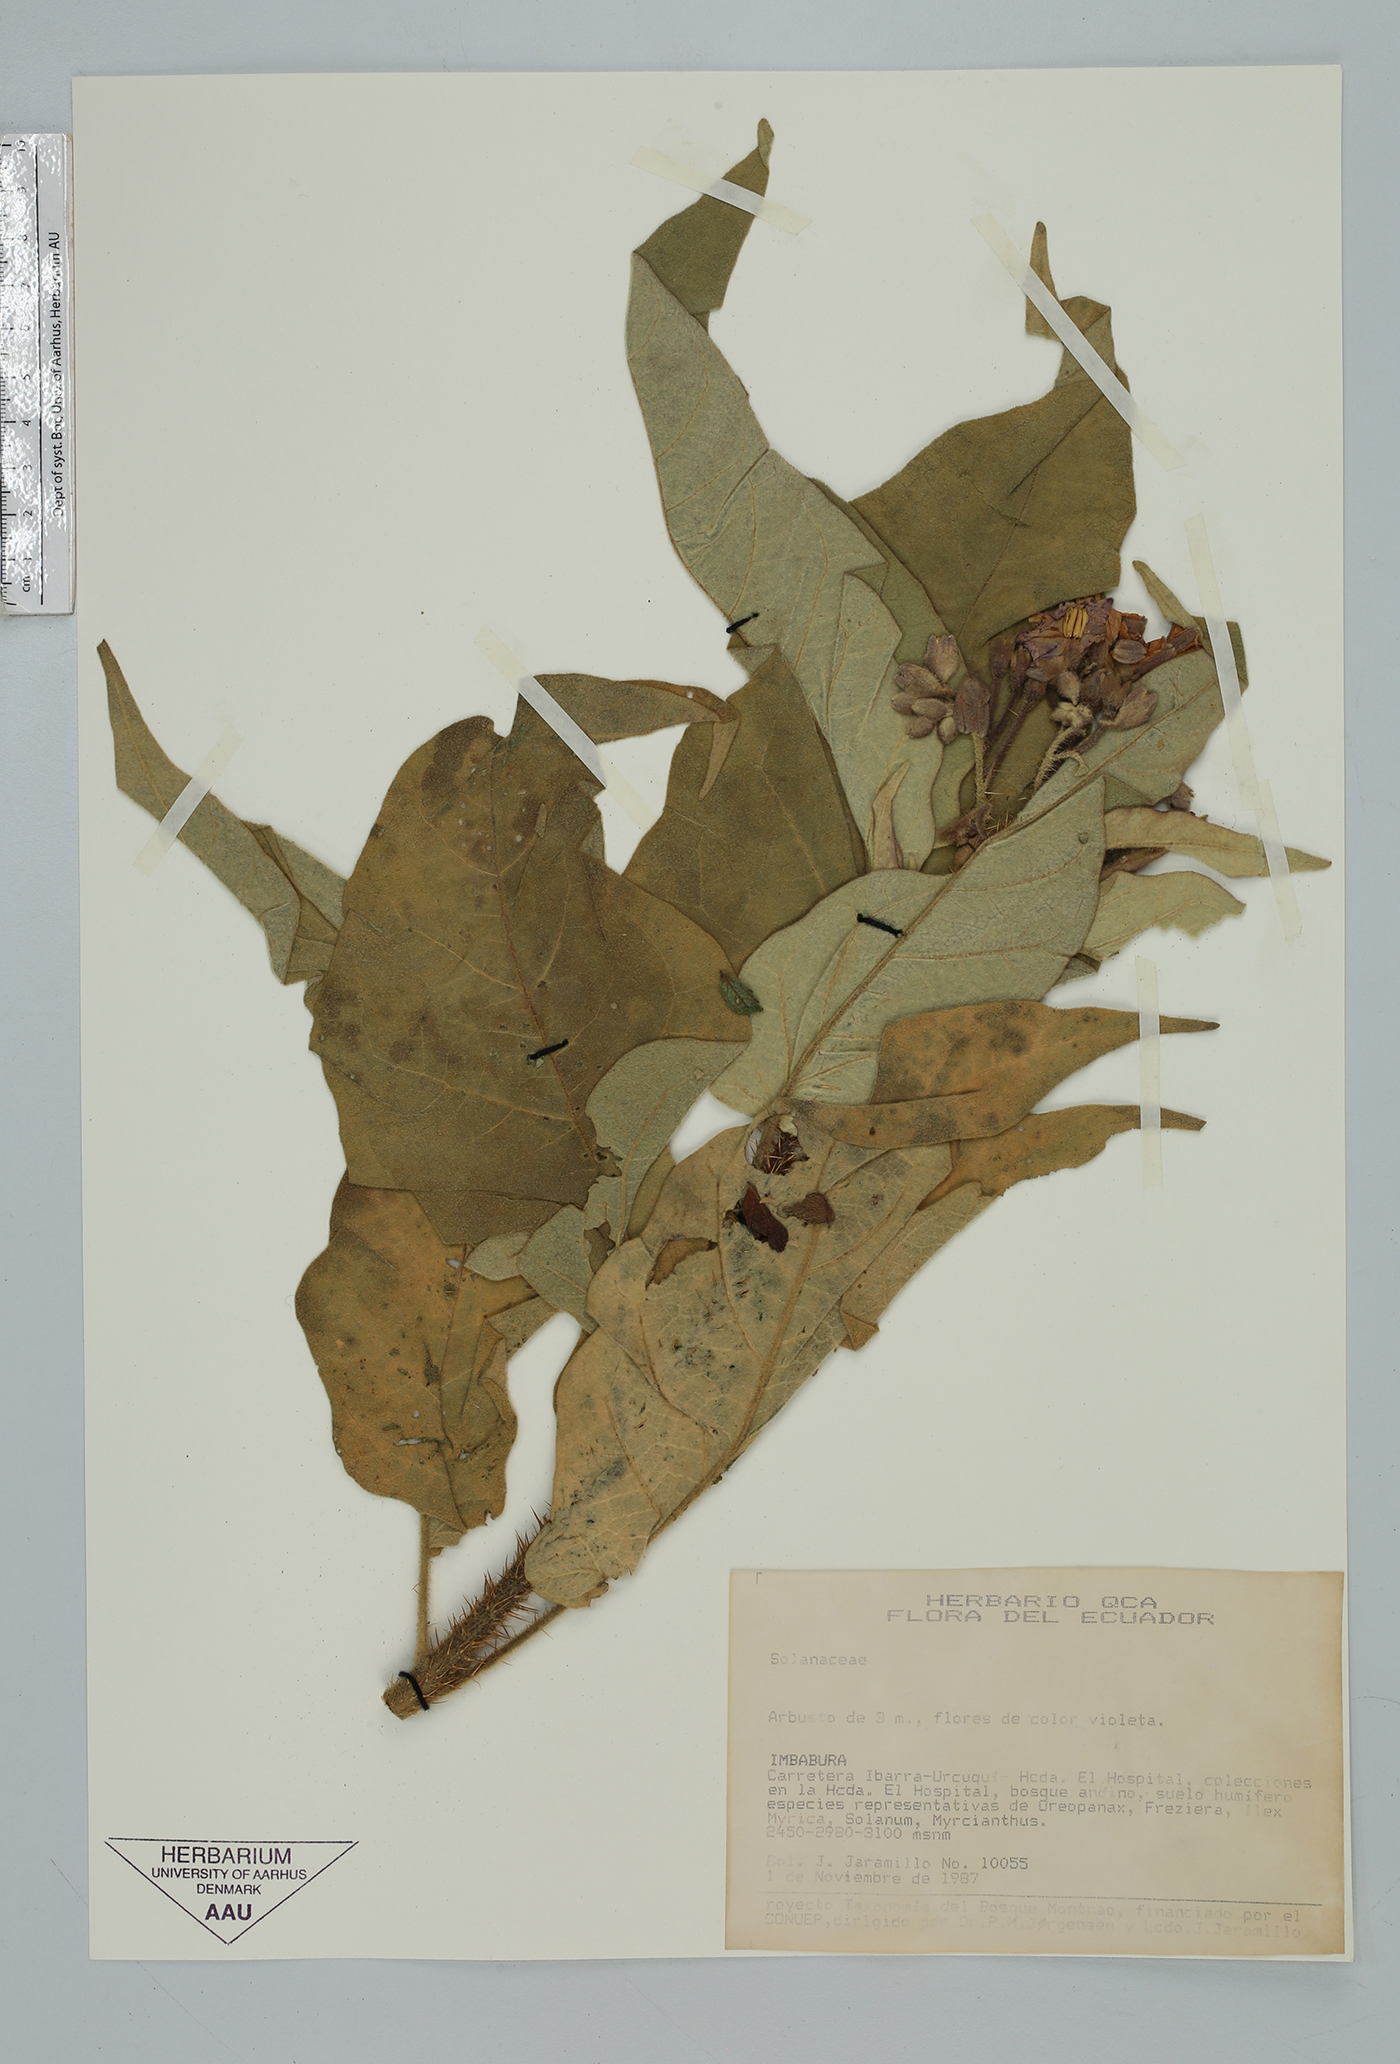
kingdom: Plantae
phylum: Tracheophyta
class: Magnoliopsida
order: Solanales
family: Solanaceae
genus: Solanum
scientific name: Solanum
